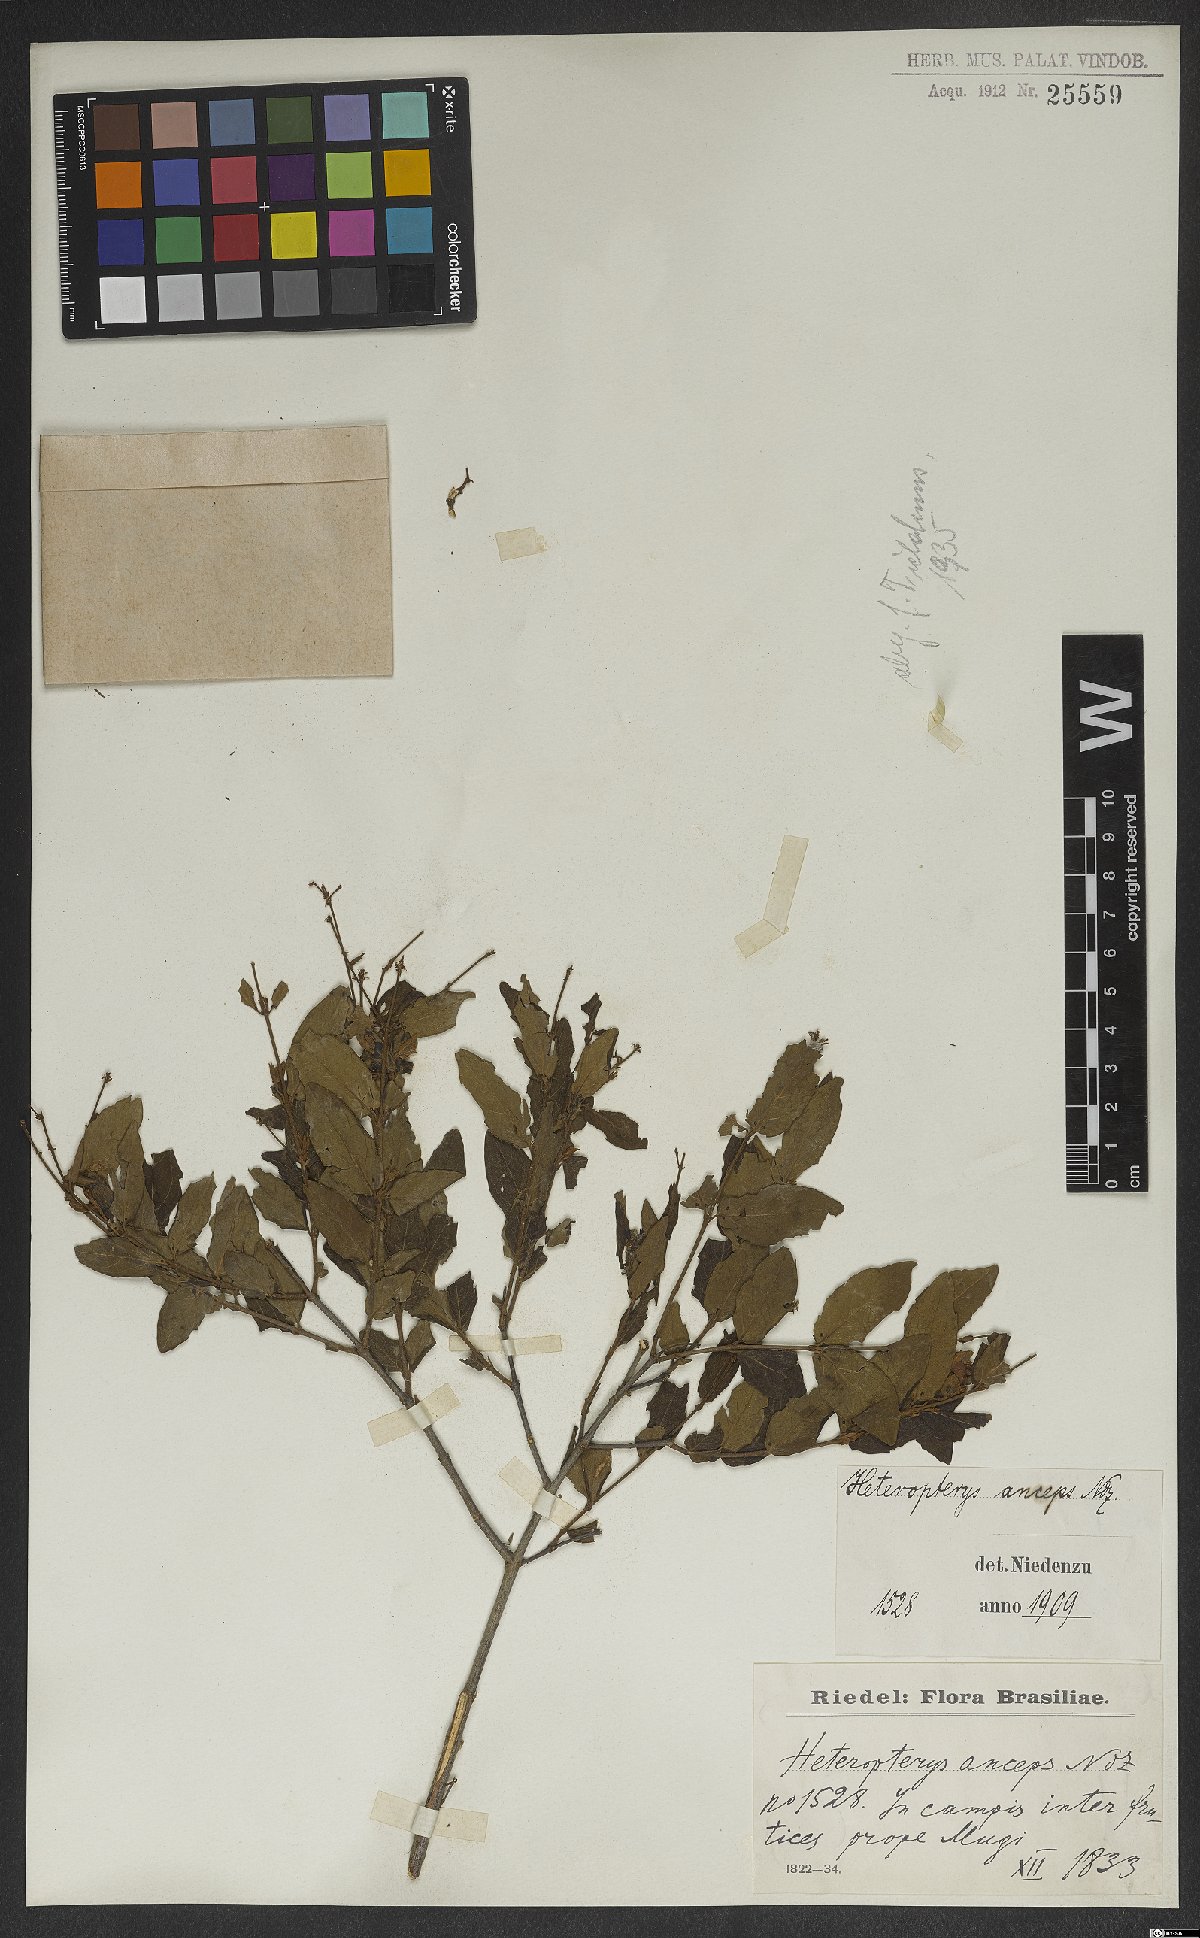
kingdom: Plantae
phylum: Tracheophyta
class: Magnoliopsida
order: Malpighiales
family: Malpighiaceae
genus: Heteropterys
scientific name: Heteropterys banksiifolia
